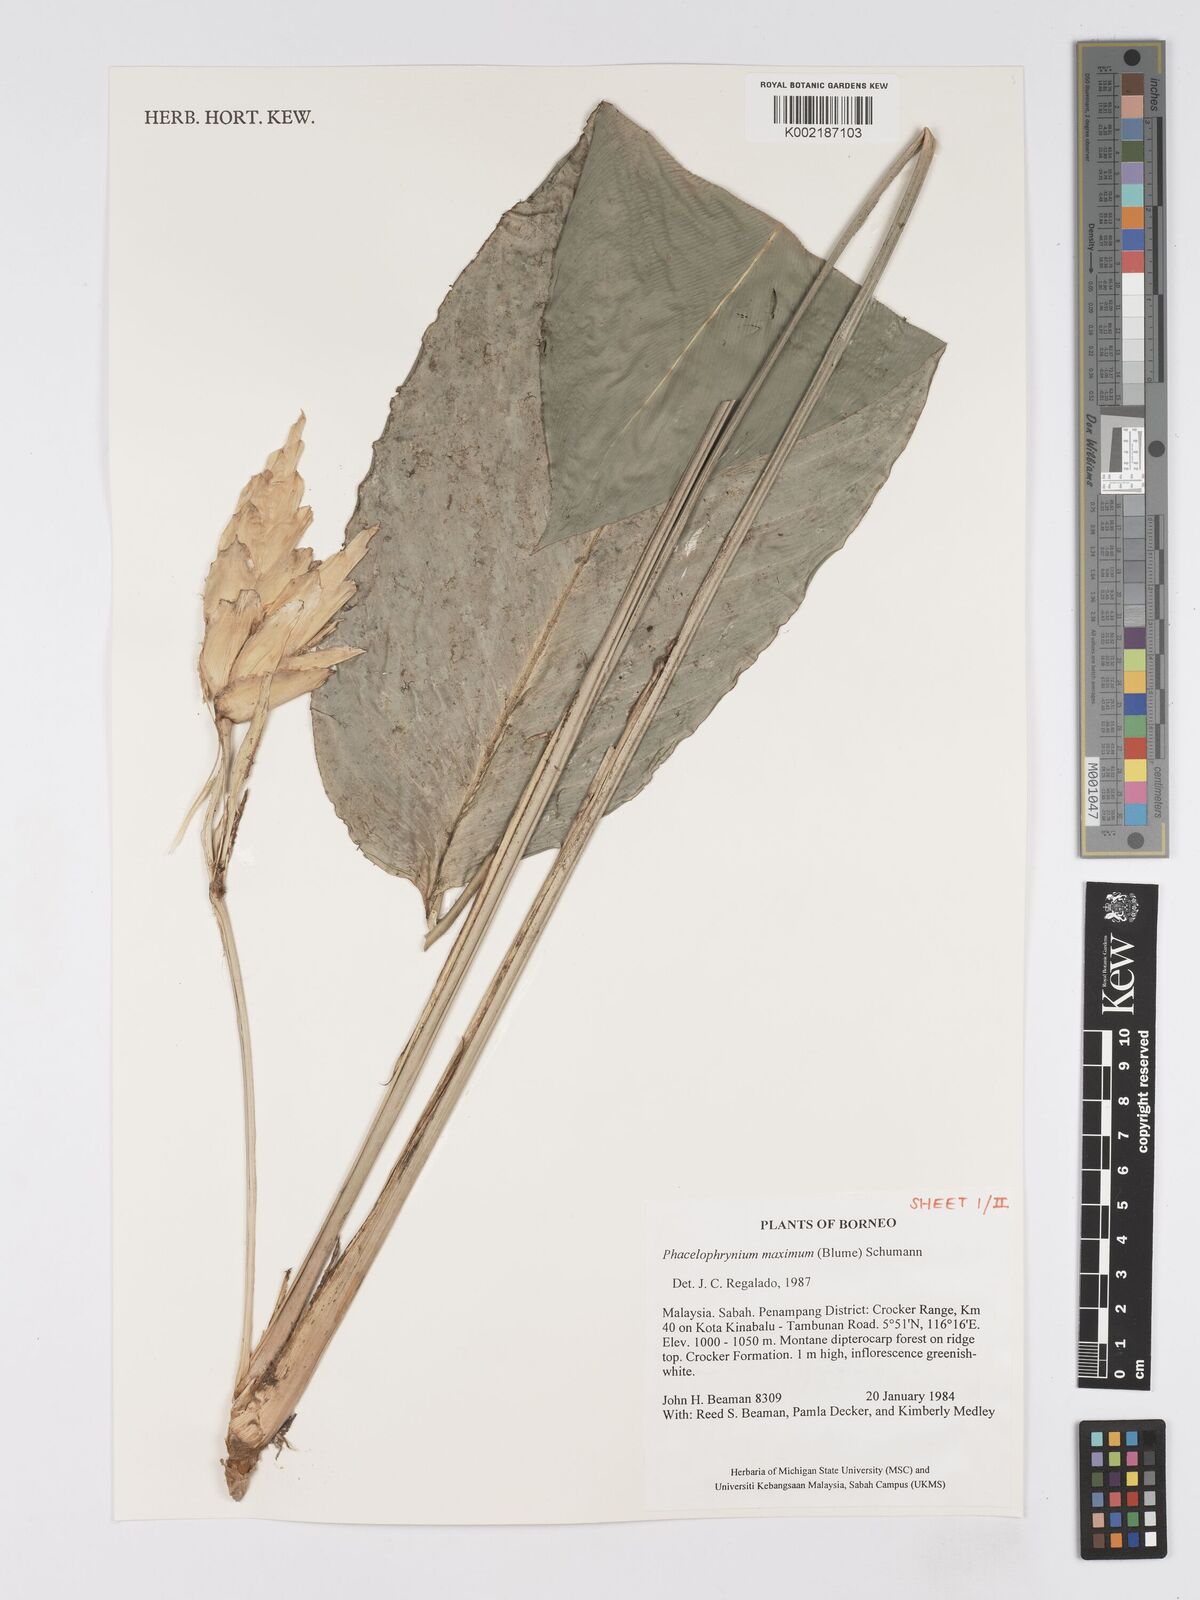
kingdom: Plantae
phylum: Tracheophyta
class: Liliopsida
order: Zingiberales
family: Marantaceae
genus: Phrynium
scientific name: Phrynium maximum
